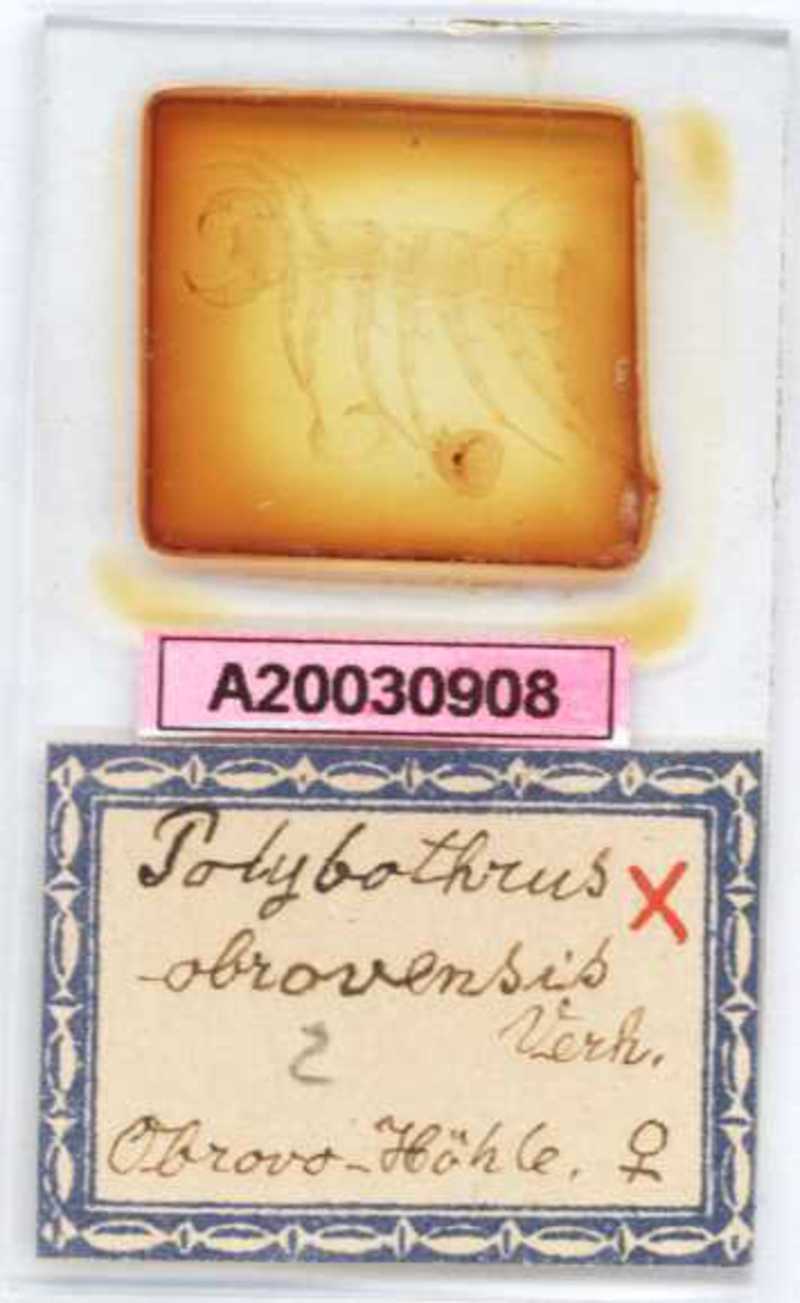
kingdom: Animalia
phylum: Arthropoda
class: Chilopoda
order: Lithobiomorpha
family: Lithobiidae
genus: Polybothrus
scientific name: Polybothrus obrovensis
